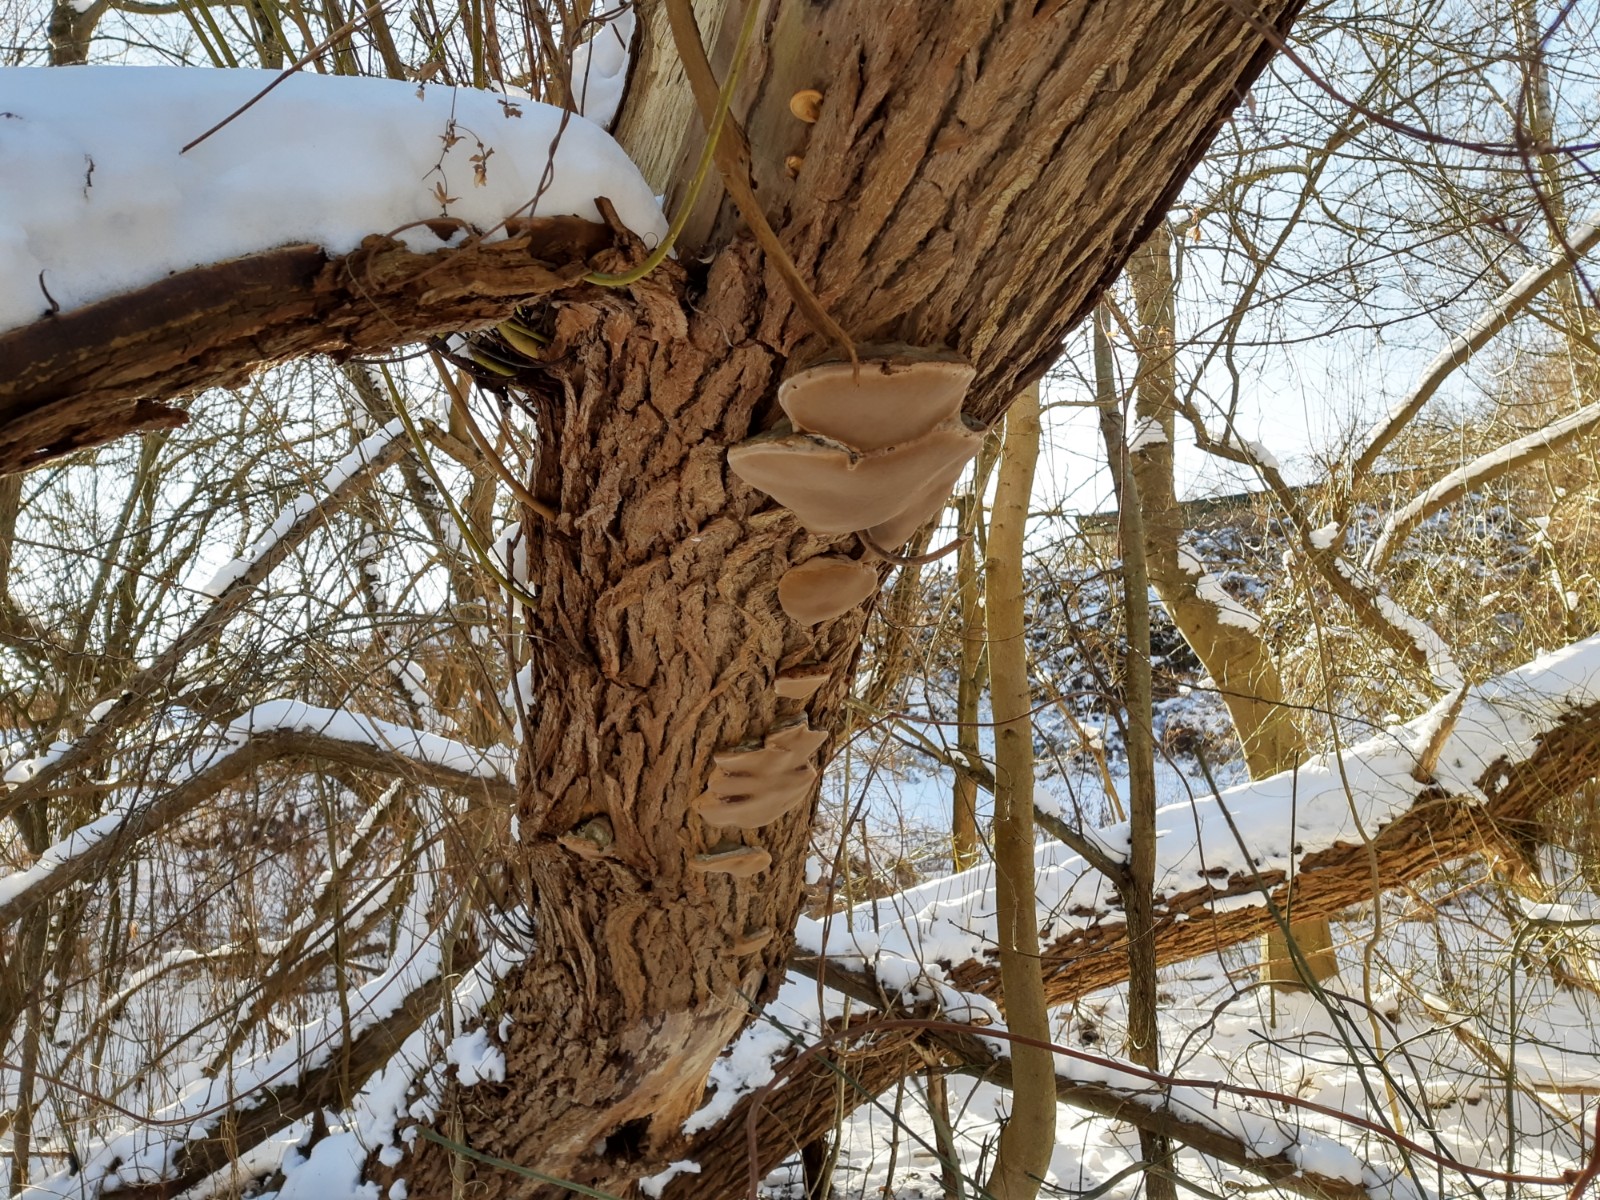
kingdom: Fungi
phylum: Basidiomycota
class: Agaricomycetes
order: Hymenochaetales
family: Hymenochaetaceae
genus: Phellinus
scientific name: Phellinus igniarius
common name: almindelig ildporesvamp
